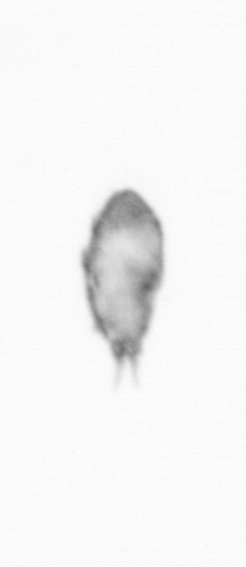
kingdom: Animalia
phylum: Arthropoda
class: Copepoda
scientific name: Copepoda
